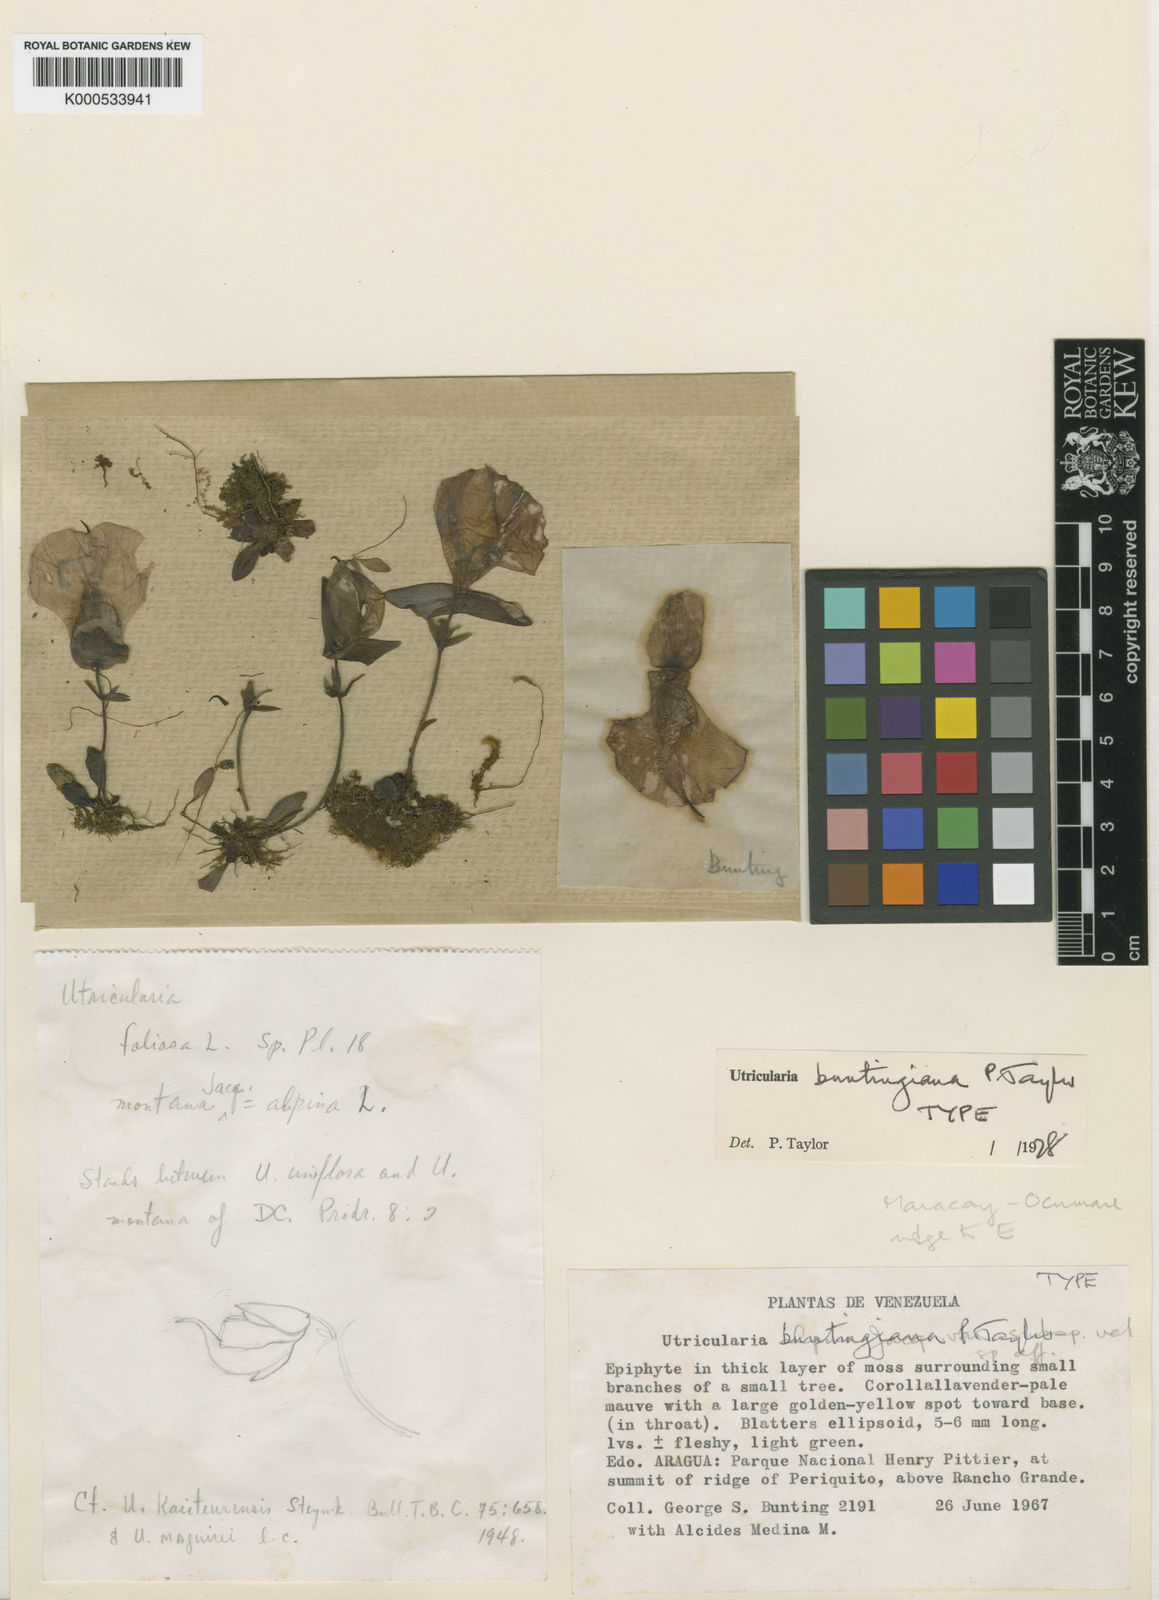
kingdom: Plantae
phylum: Tracheophyta
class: Magnoliopsida
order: Lamiales
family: Lentibulariaceae
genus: Utricularia
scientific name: Utricularia buntingiana
